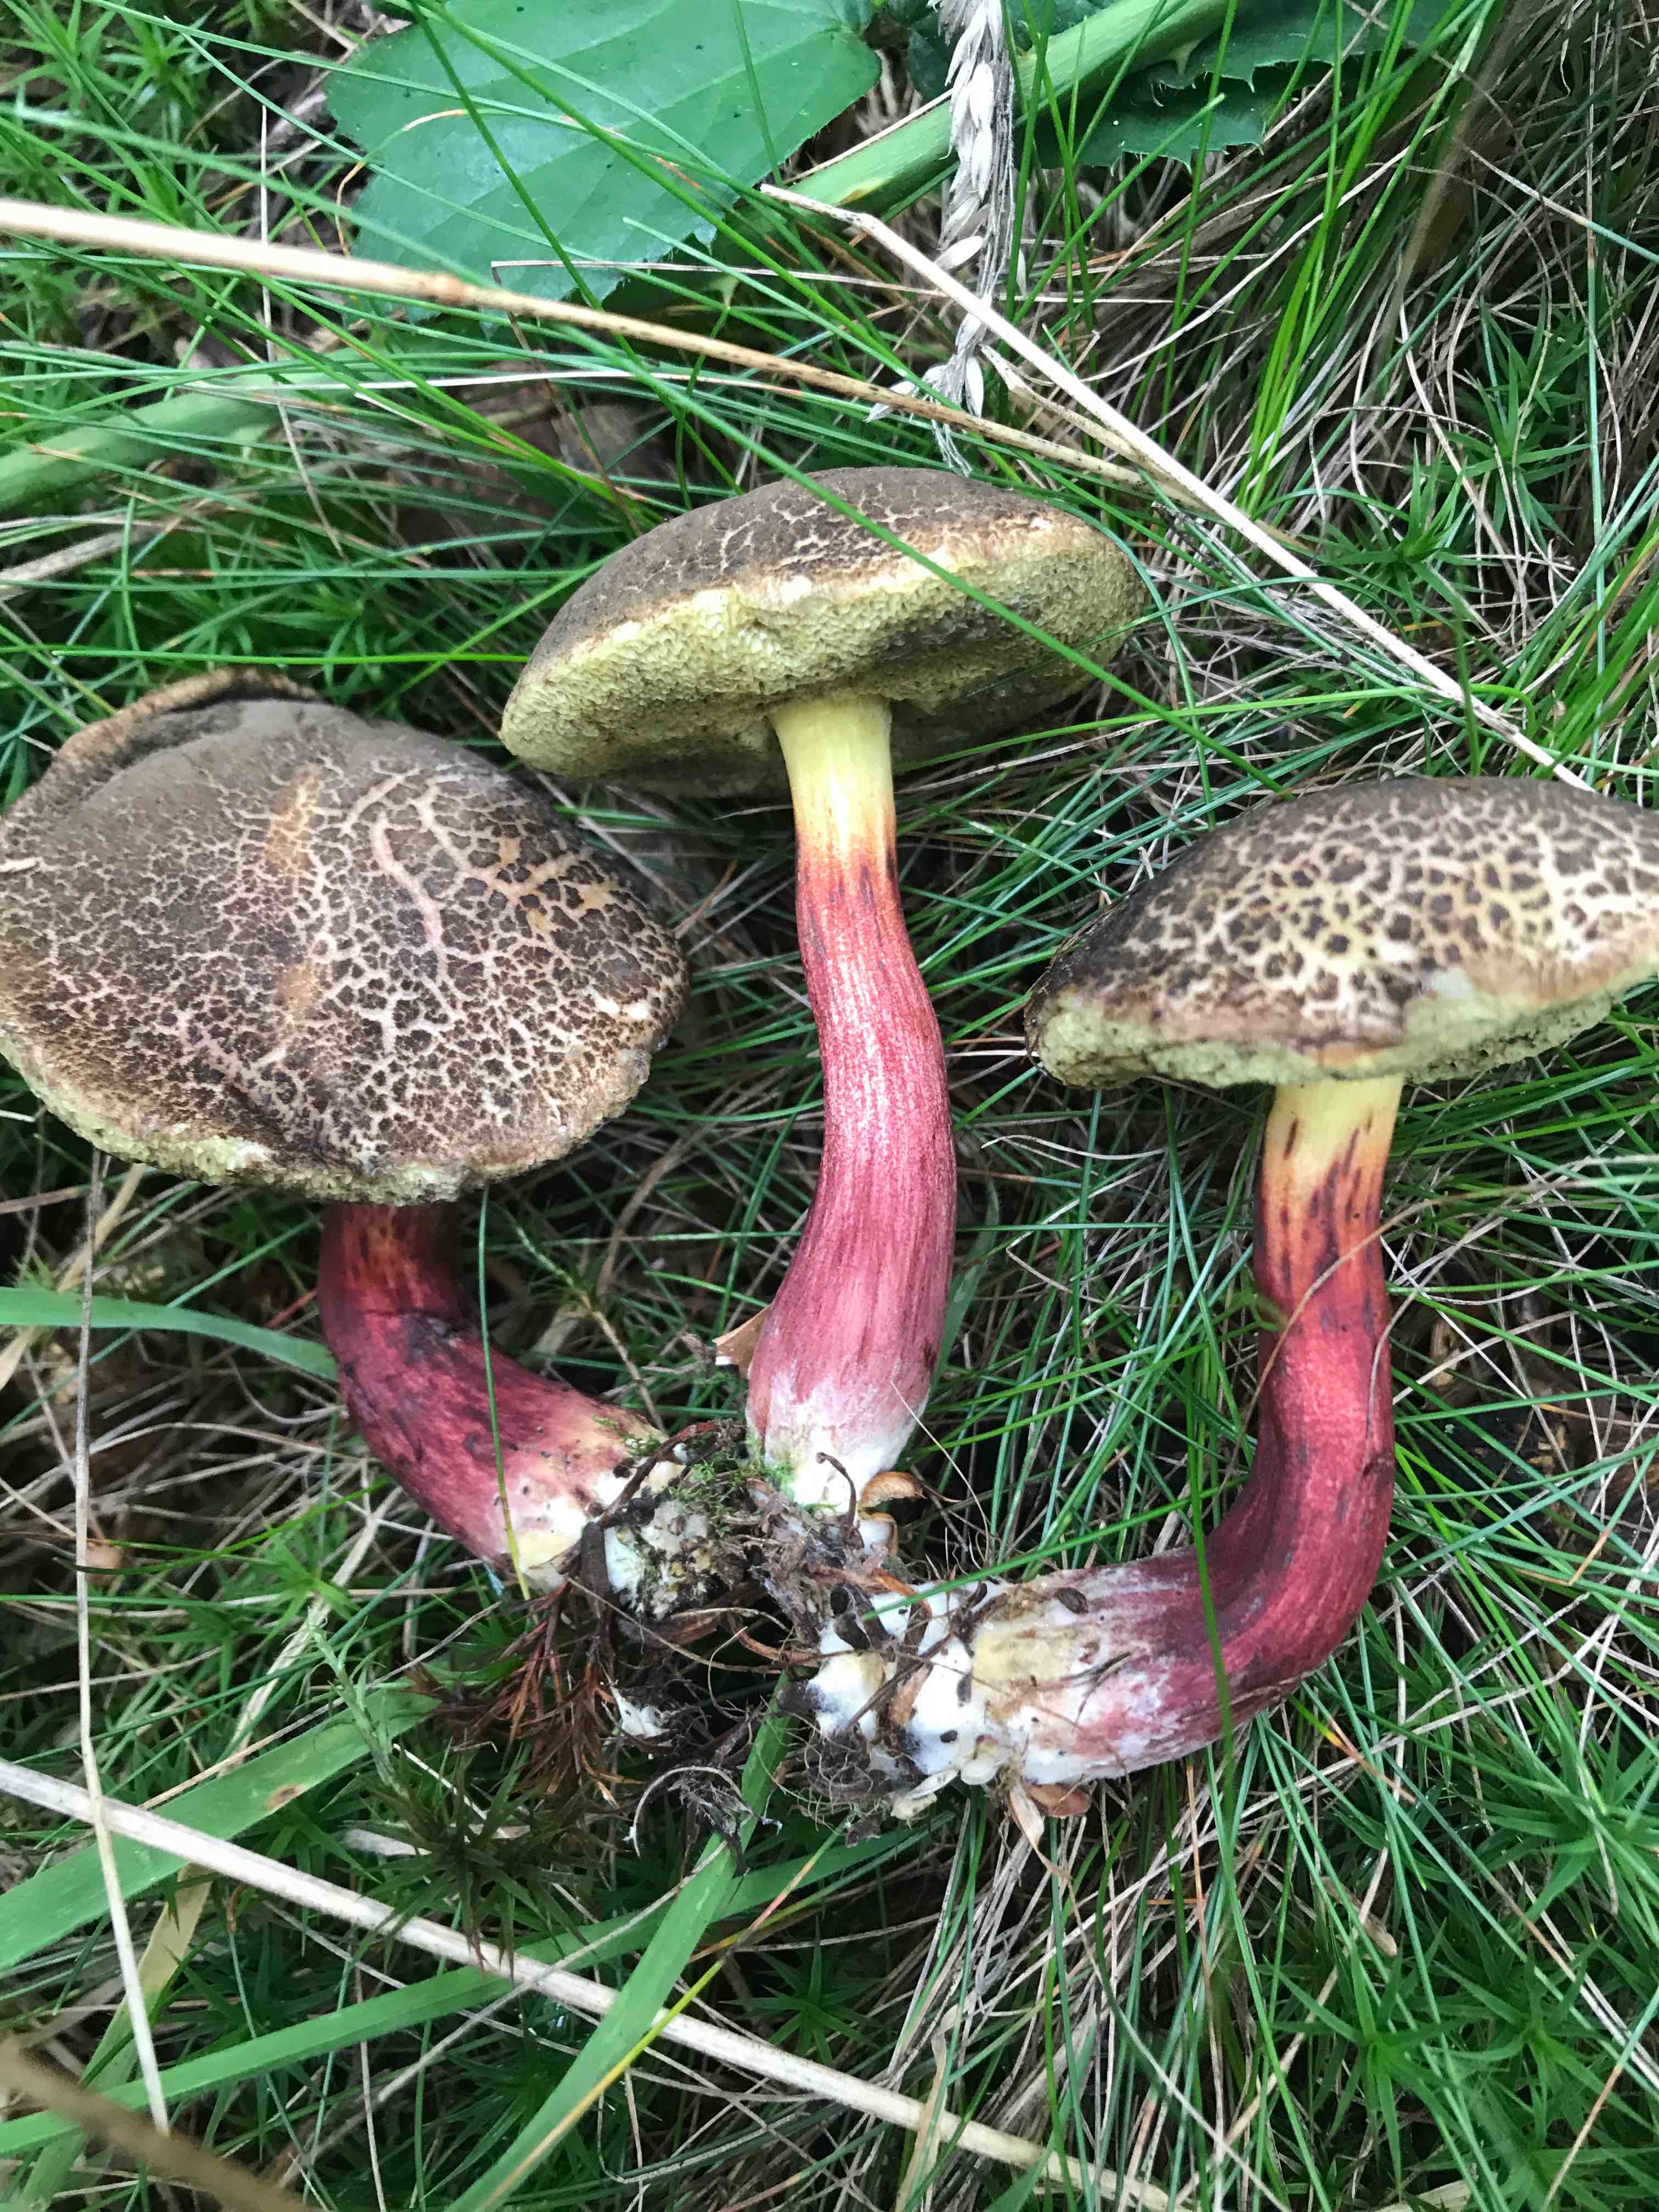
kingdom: Fungi
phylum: Basidiomycota
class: Agaricomycetes
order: Boletales
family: Boletaceae
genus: Xerocomellus
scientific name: Xerocomellus
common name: dværgrørhat
